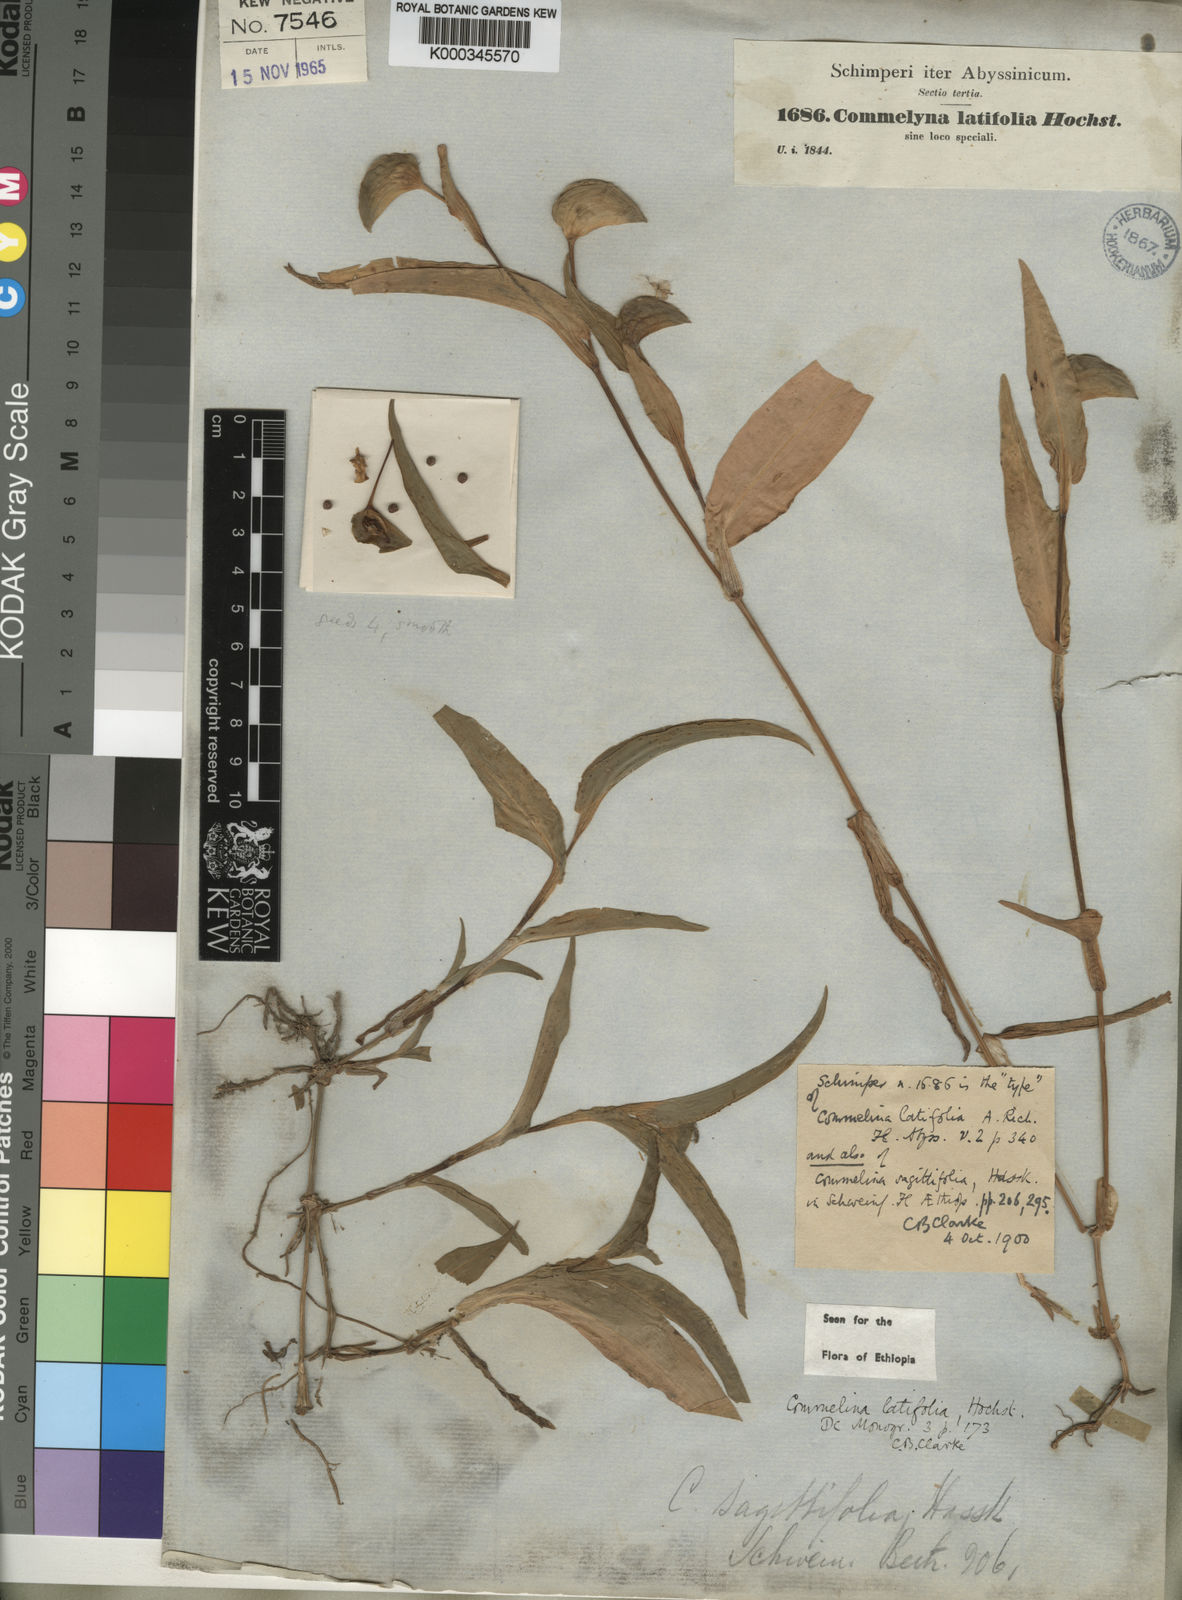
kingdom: Plantae
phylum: Tracheophyta
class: Liliopsida
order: Commelinales
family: Commelinaceae
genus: Commelina
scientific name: Commelina
